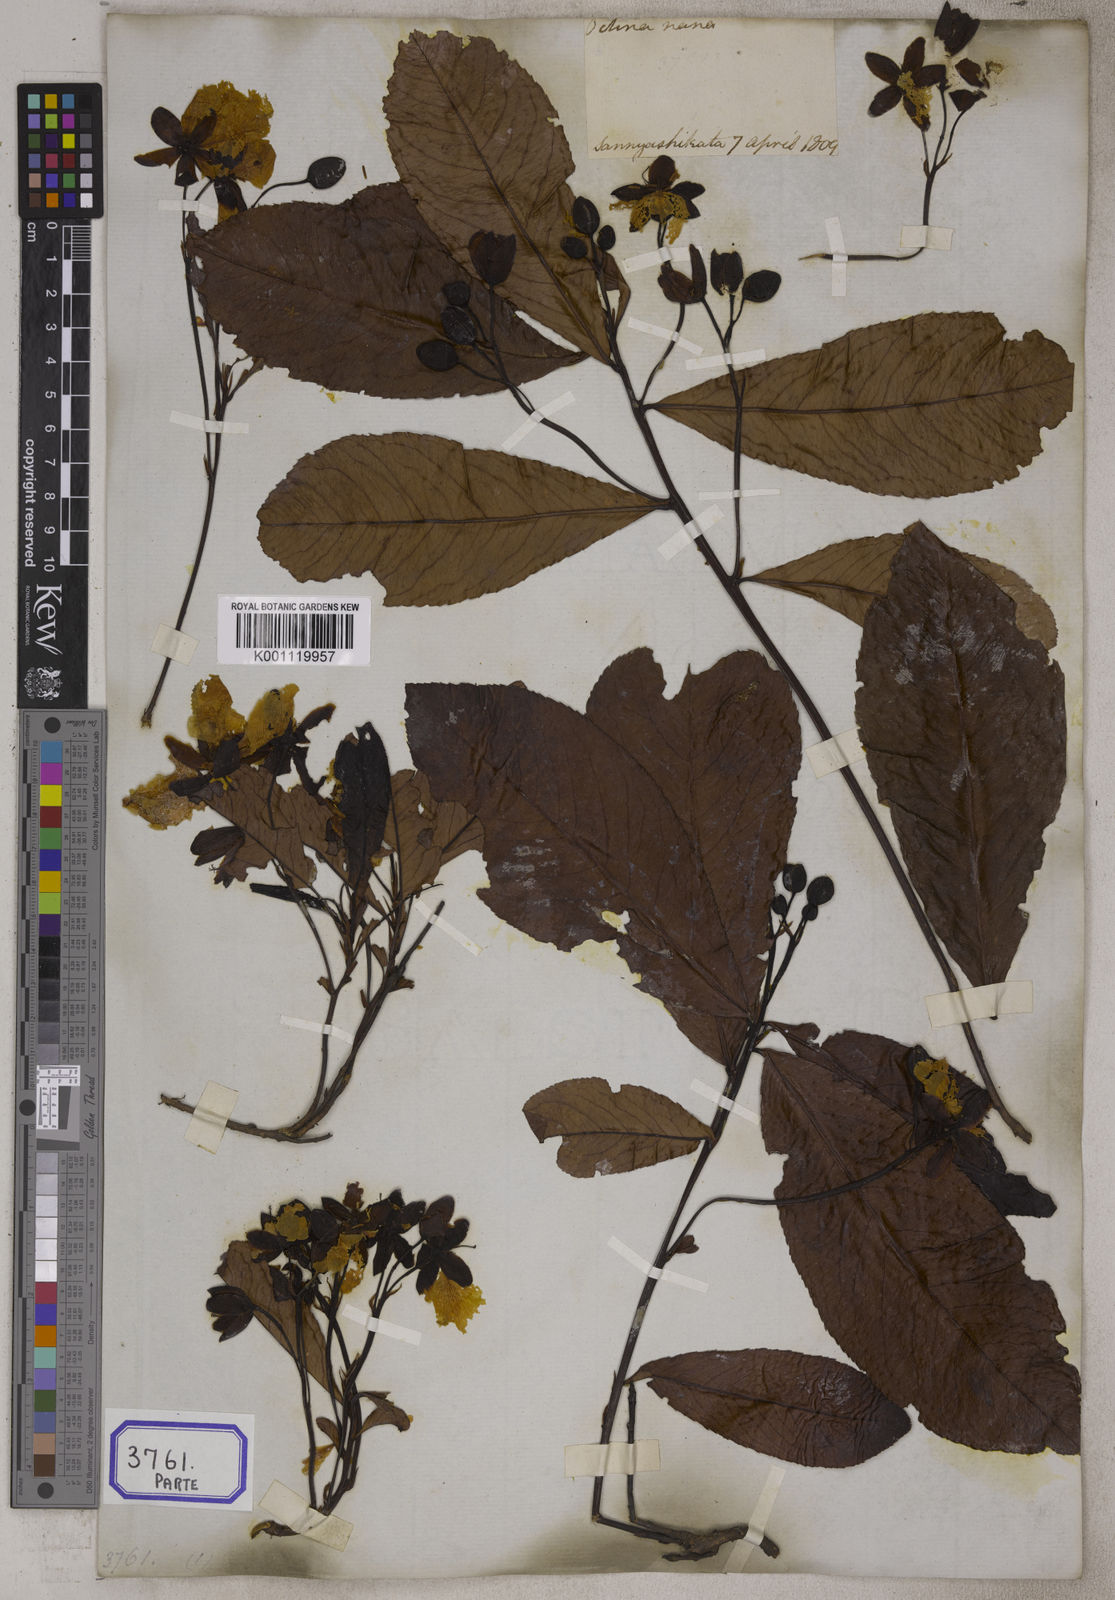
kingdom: Plantae
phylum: Tracheophyta
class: Magnoliopsida
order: Malpighiales
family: Ochnaceae
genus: Ochna
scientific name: Ochna pumila
